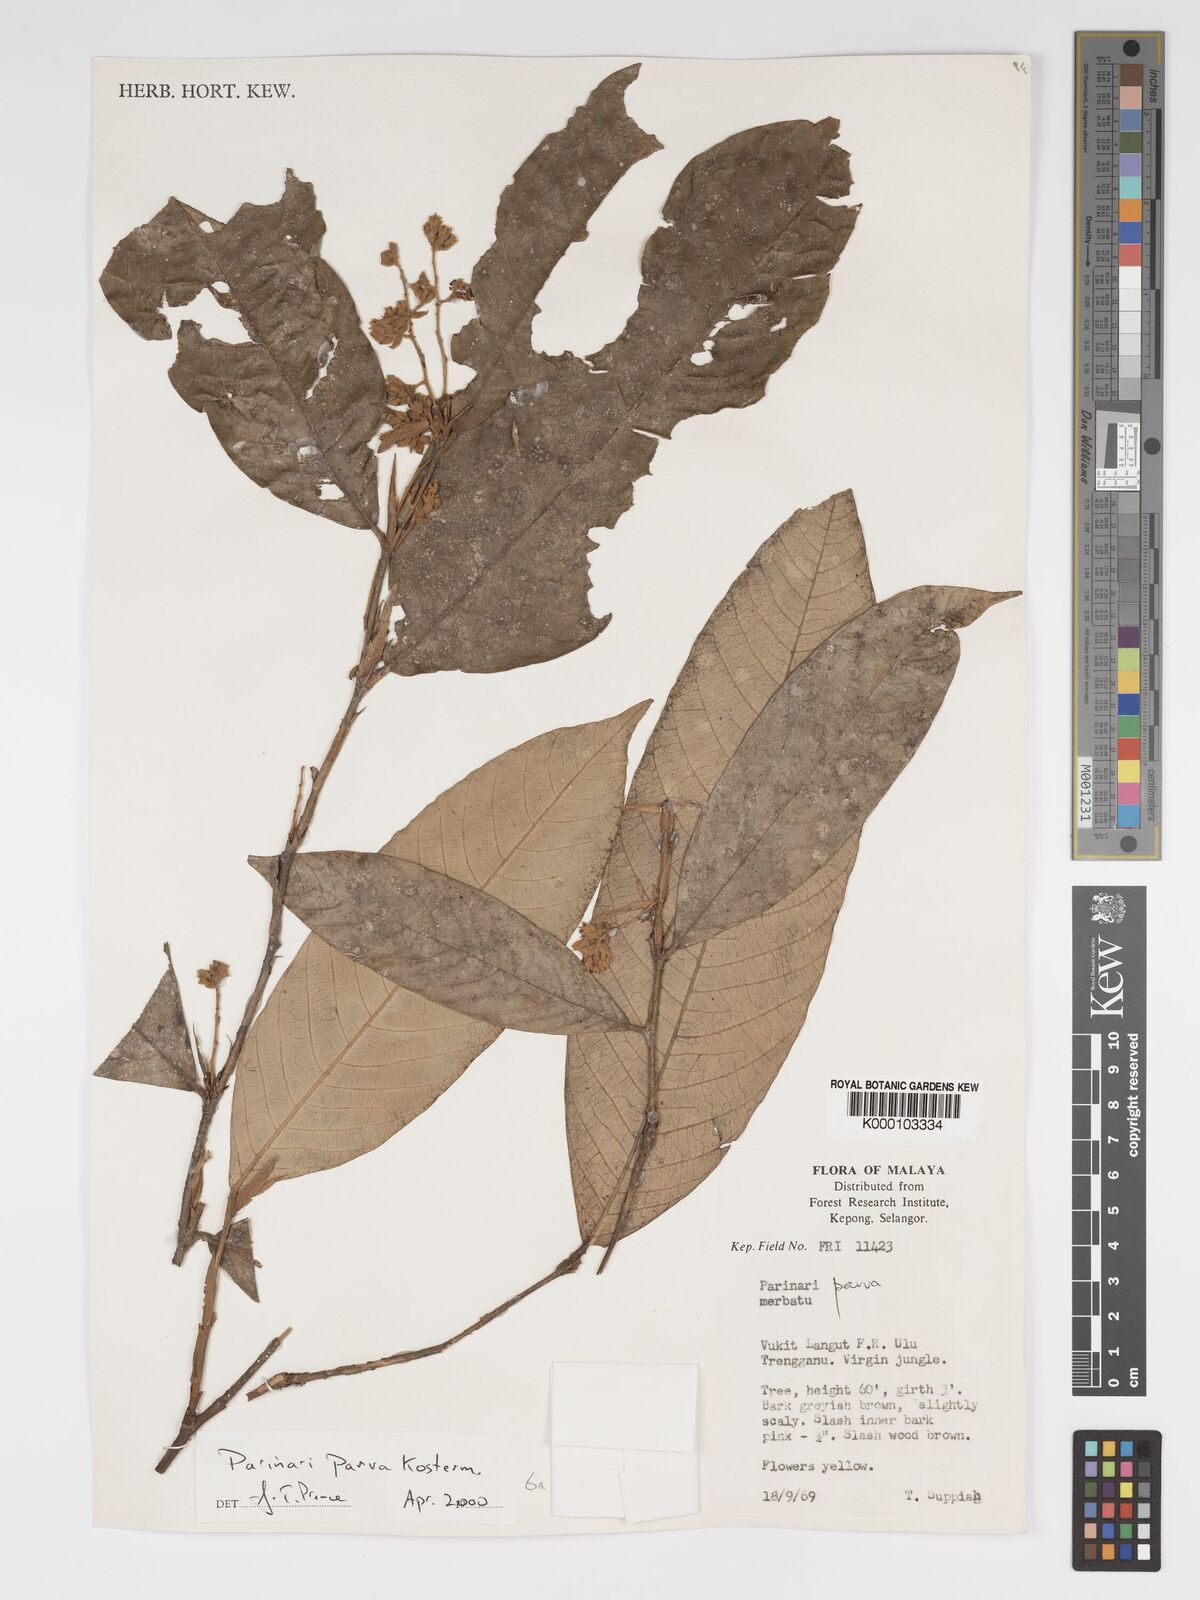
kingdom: Plantae
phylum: Tracheophyta
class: Magnoliopsida
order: Malpighiales
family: Chrysobalanaceae
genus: Parinari
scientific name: Parinari parva
